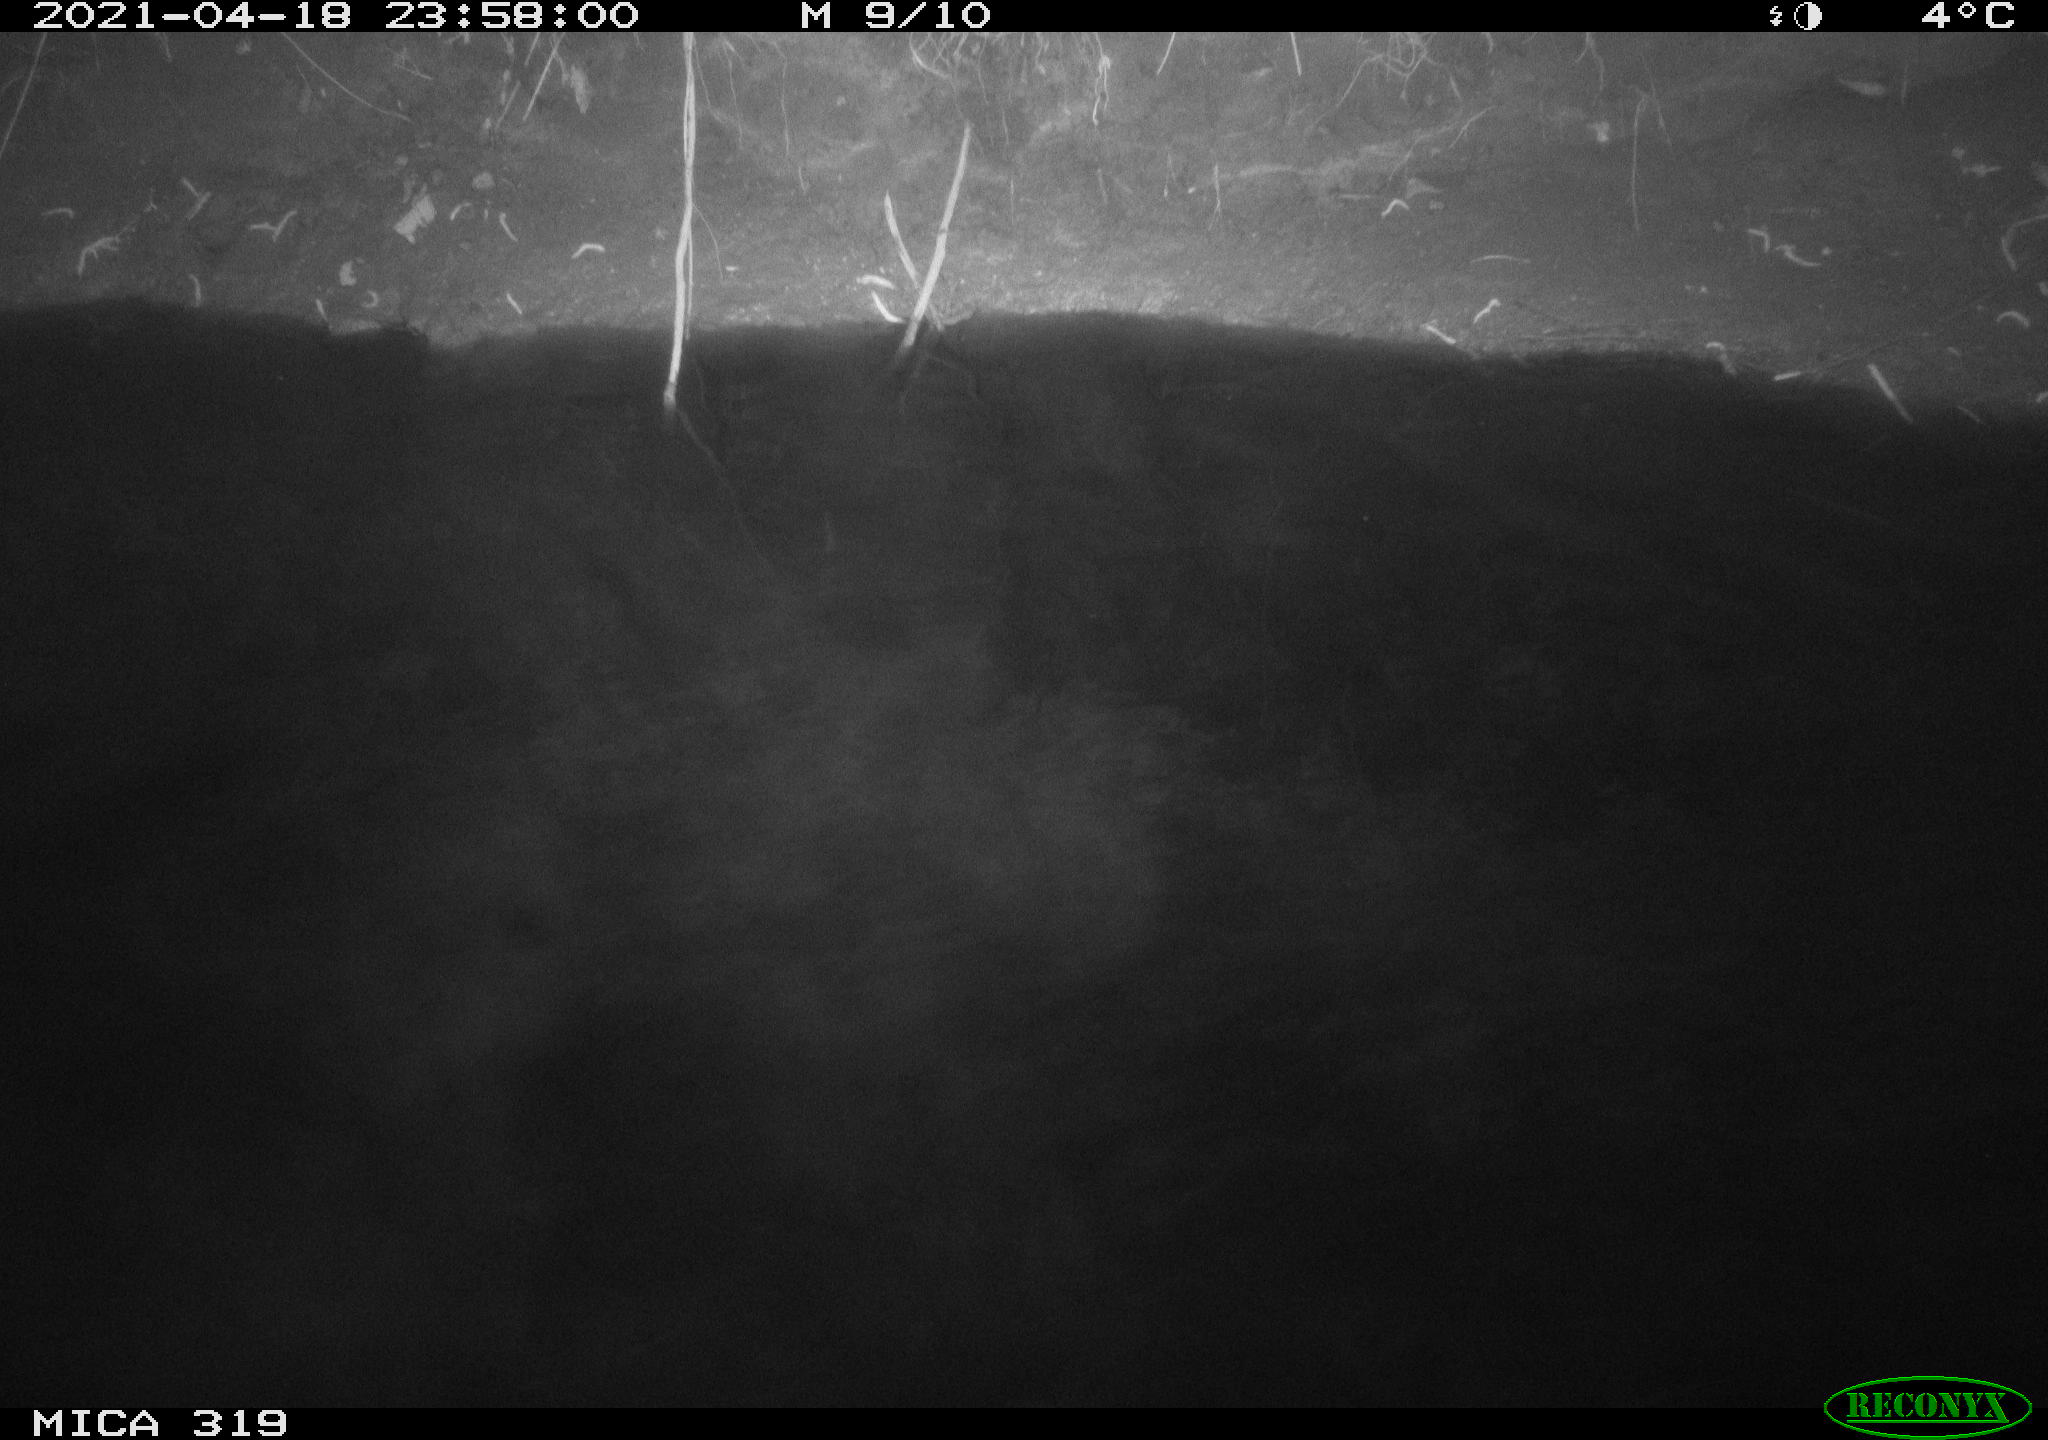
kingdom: Animalia
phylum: Chordata
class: Aves
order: Anseriformes
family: Anatidae
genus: Anas
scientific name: Anas platyrhynchos
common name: Mallard
